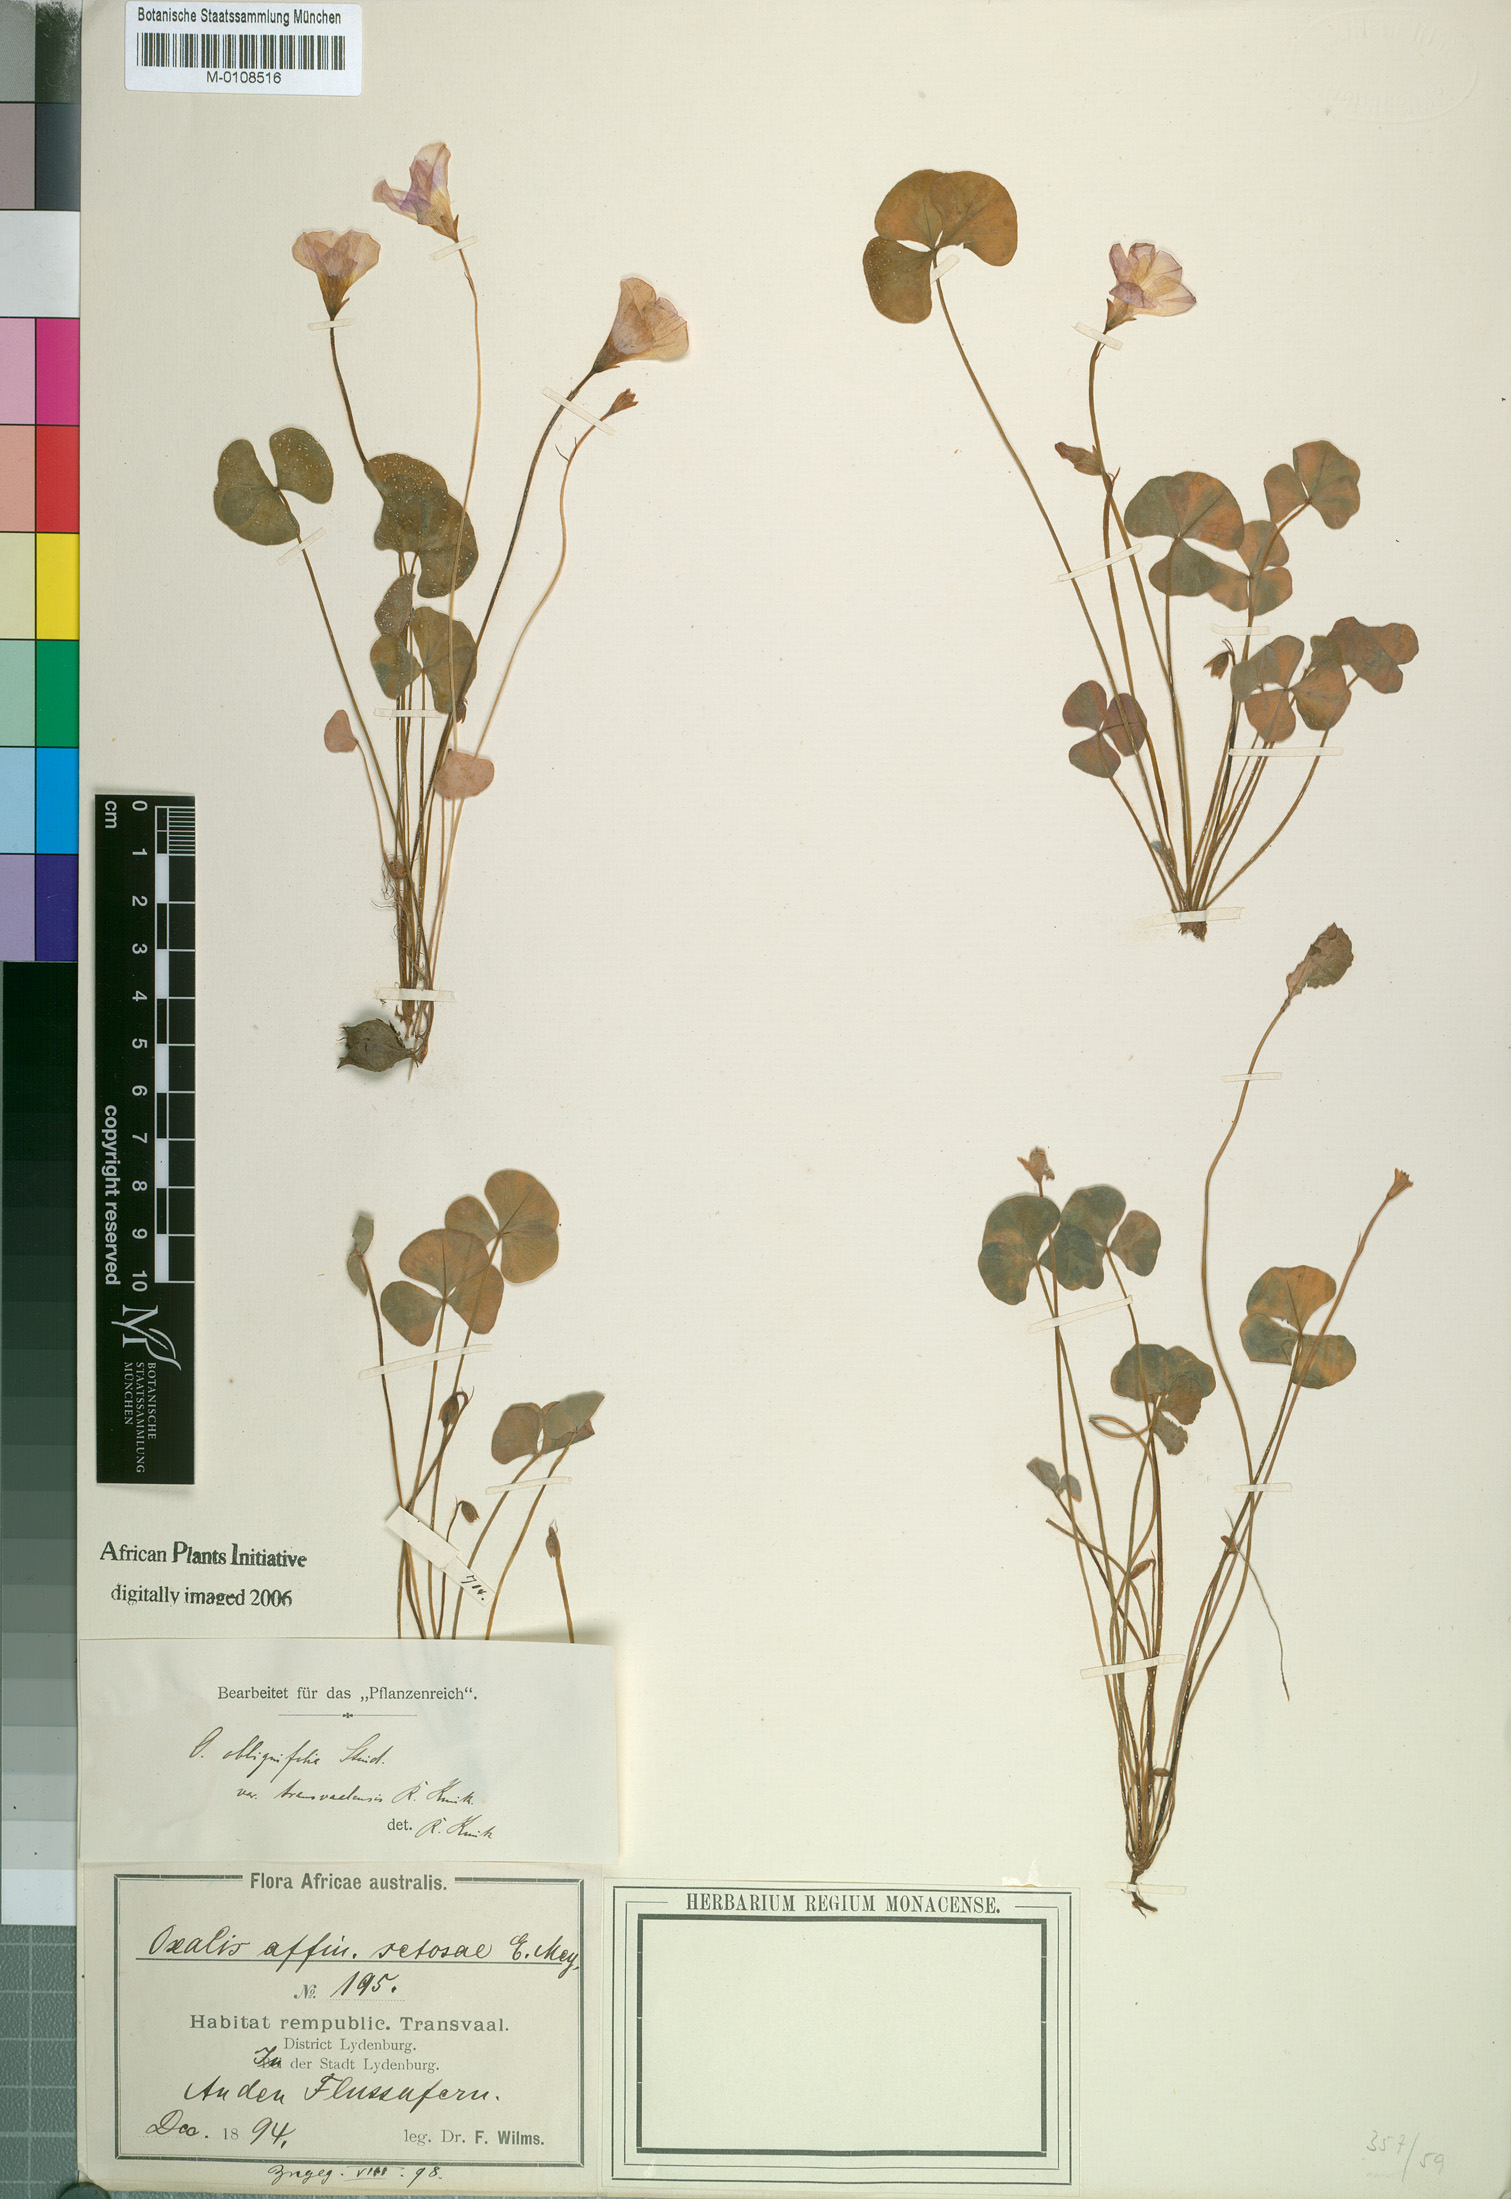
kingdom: Plantae
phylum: Tracheophyta
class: Magnoliopsida
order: Oxalidales
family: Oxalidaceae
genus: Oxalis
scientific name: Oxalis obliquifolia
